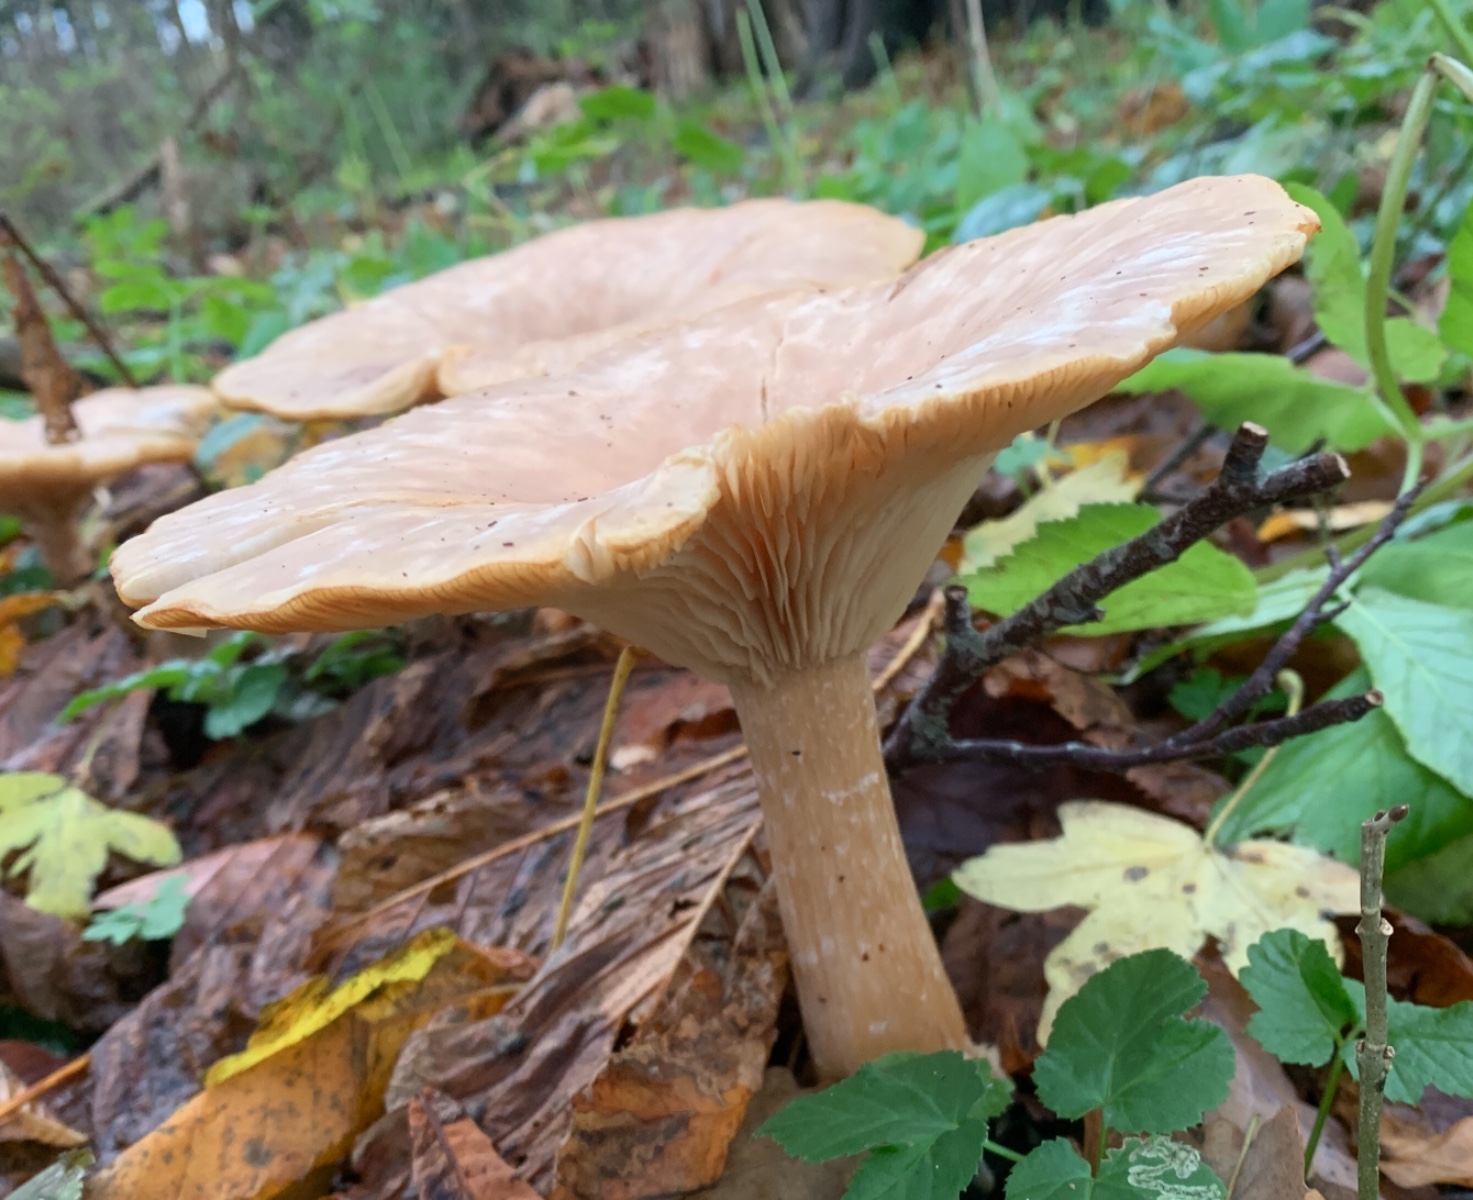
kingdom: Fungi
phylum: Basidiomycota
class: Agaricomycetes
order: Agaricales
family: Tricholomataceae
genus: Infundibulicybe
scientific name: Infundibulicybe geotropa
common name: stor tragthat
